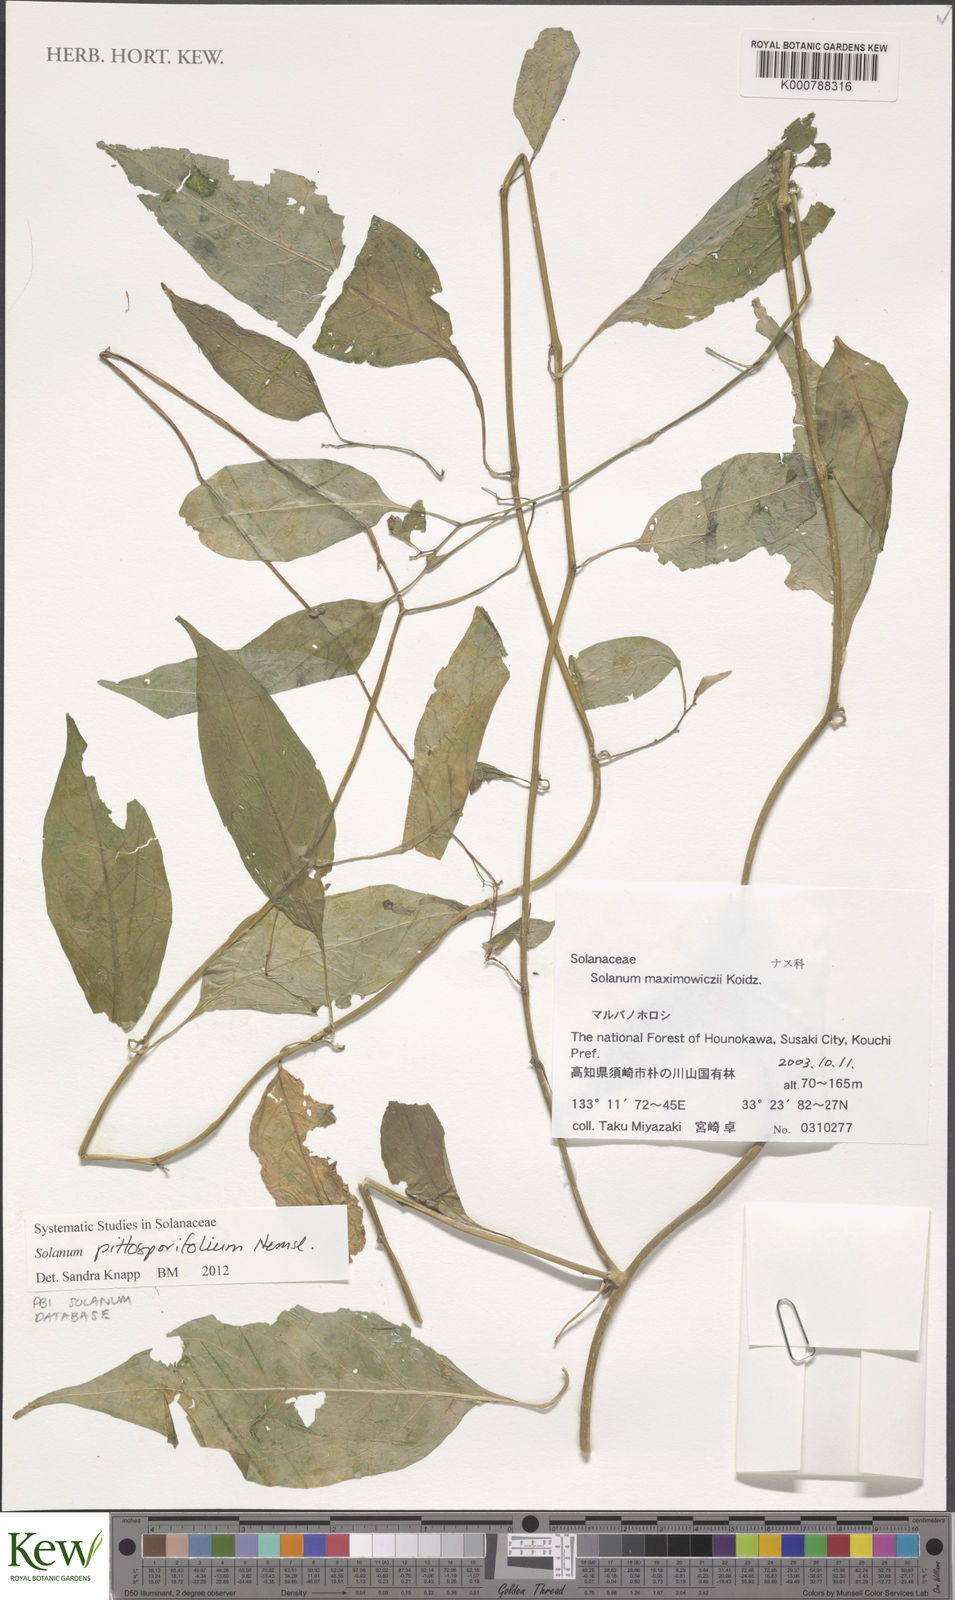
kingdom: Plantae
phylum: Tracheophyta
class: Magnoliopsida
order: Solanales
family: Solanaceae
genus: Solanum
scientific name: Solanum pittosporifolium
